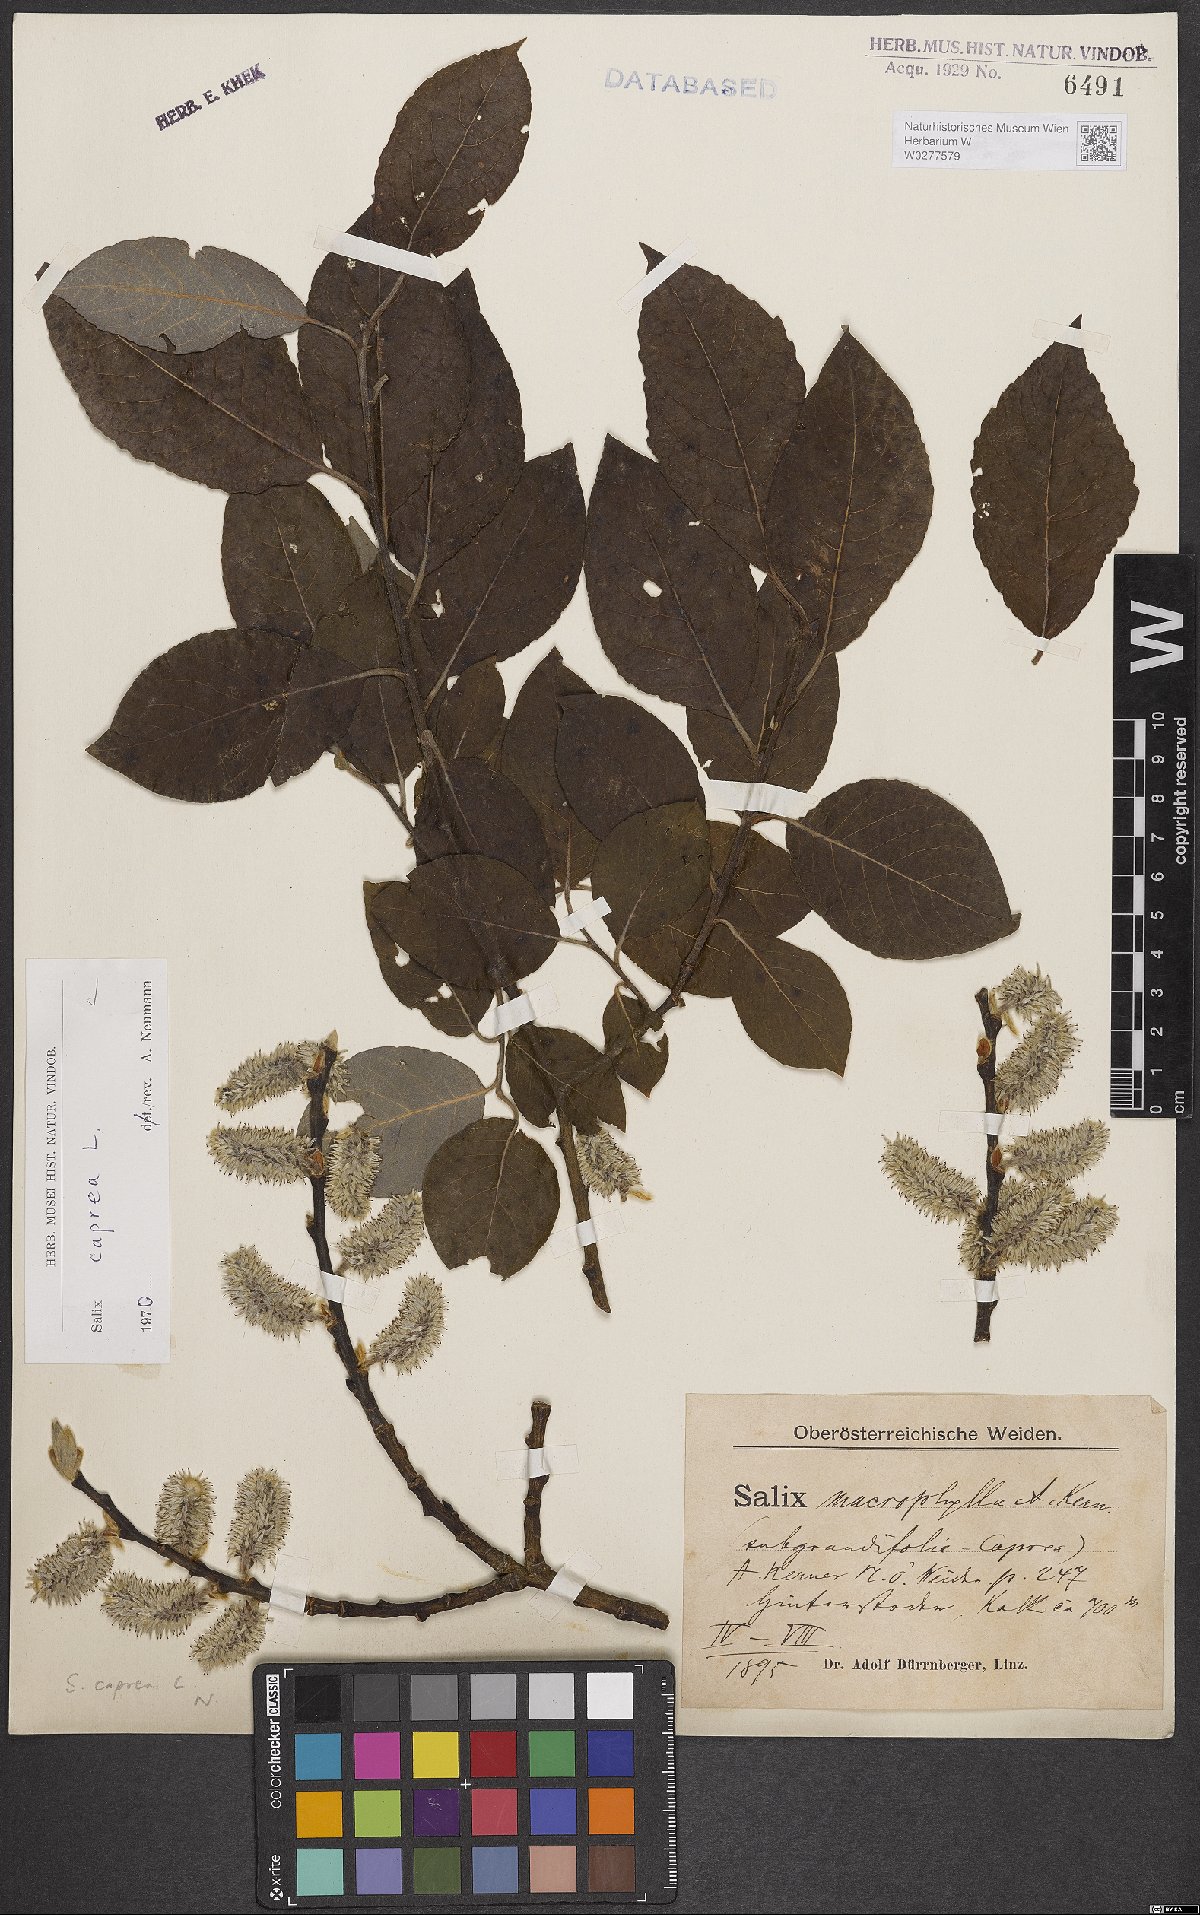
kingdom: Plantae
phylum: Tracheophyta
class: Magnoliopsida
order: Malpighiales
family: Salicaceae
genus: Salix
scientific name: Salix caprea
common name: Goat willow
